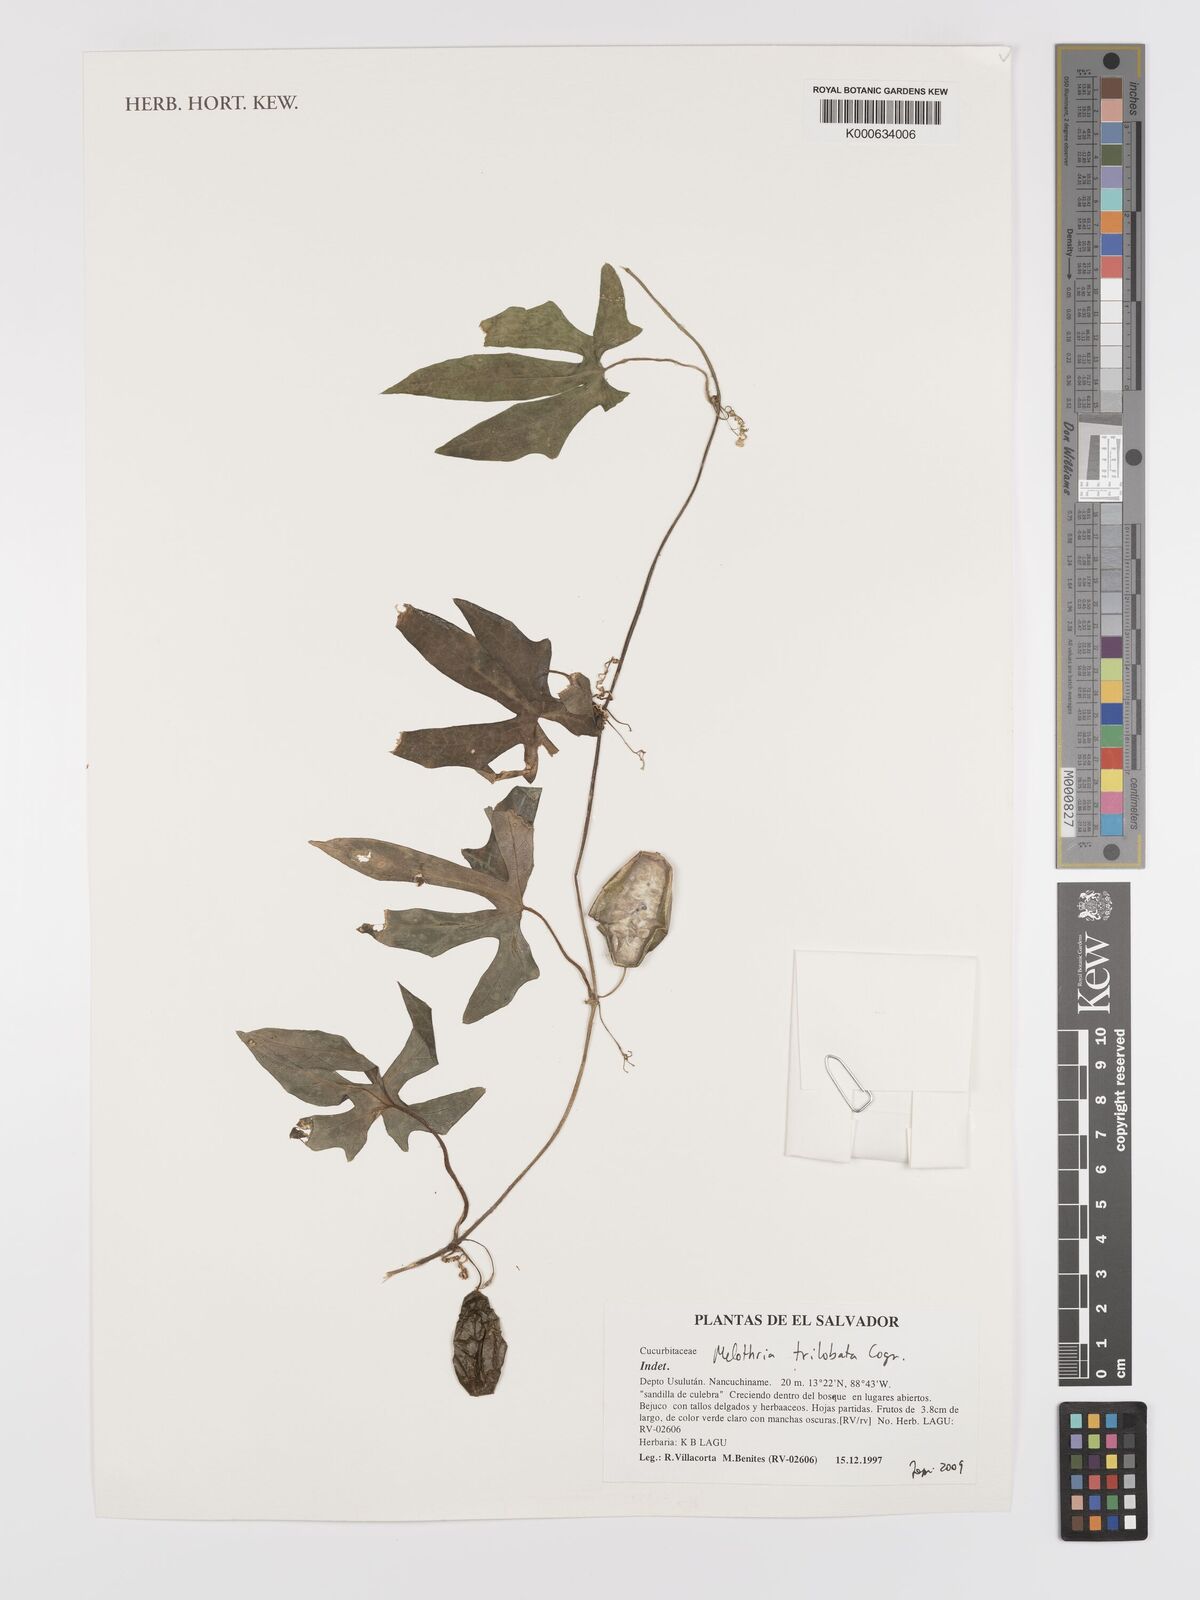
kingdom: Plantae
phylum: Tracheophyta
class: Magnoliopsida
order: Cucurbitales
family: Cucurbitaceae
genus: Melothria
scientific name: Melothria trilobata
